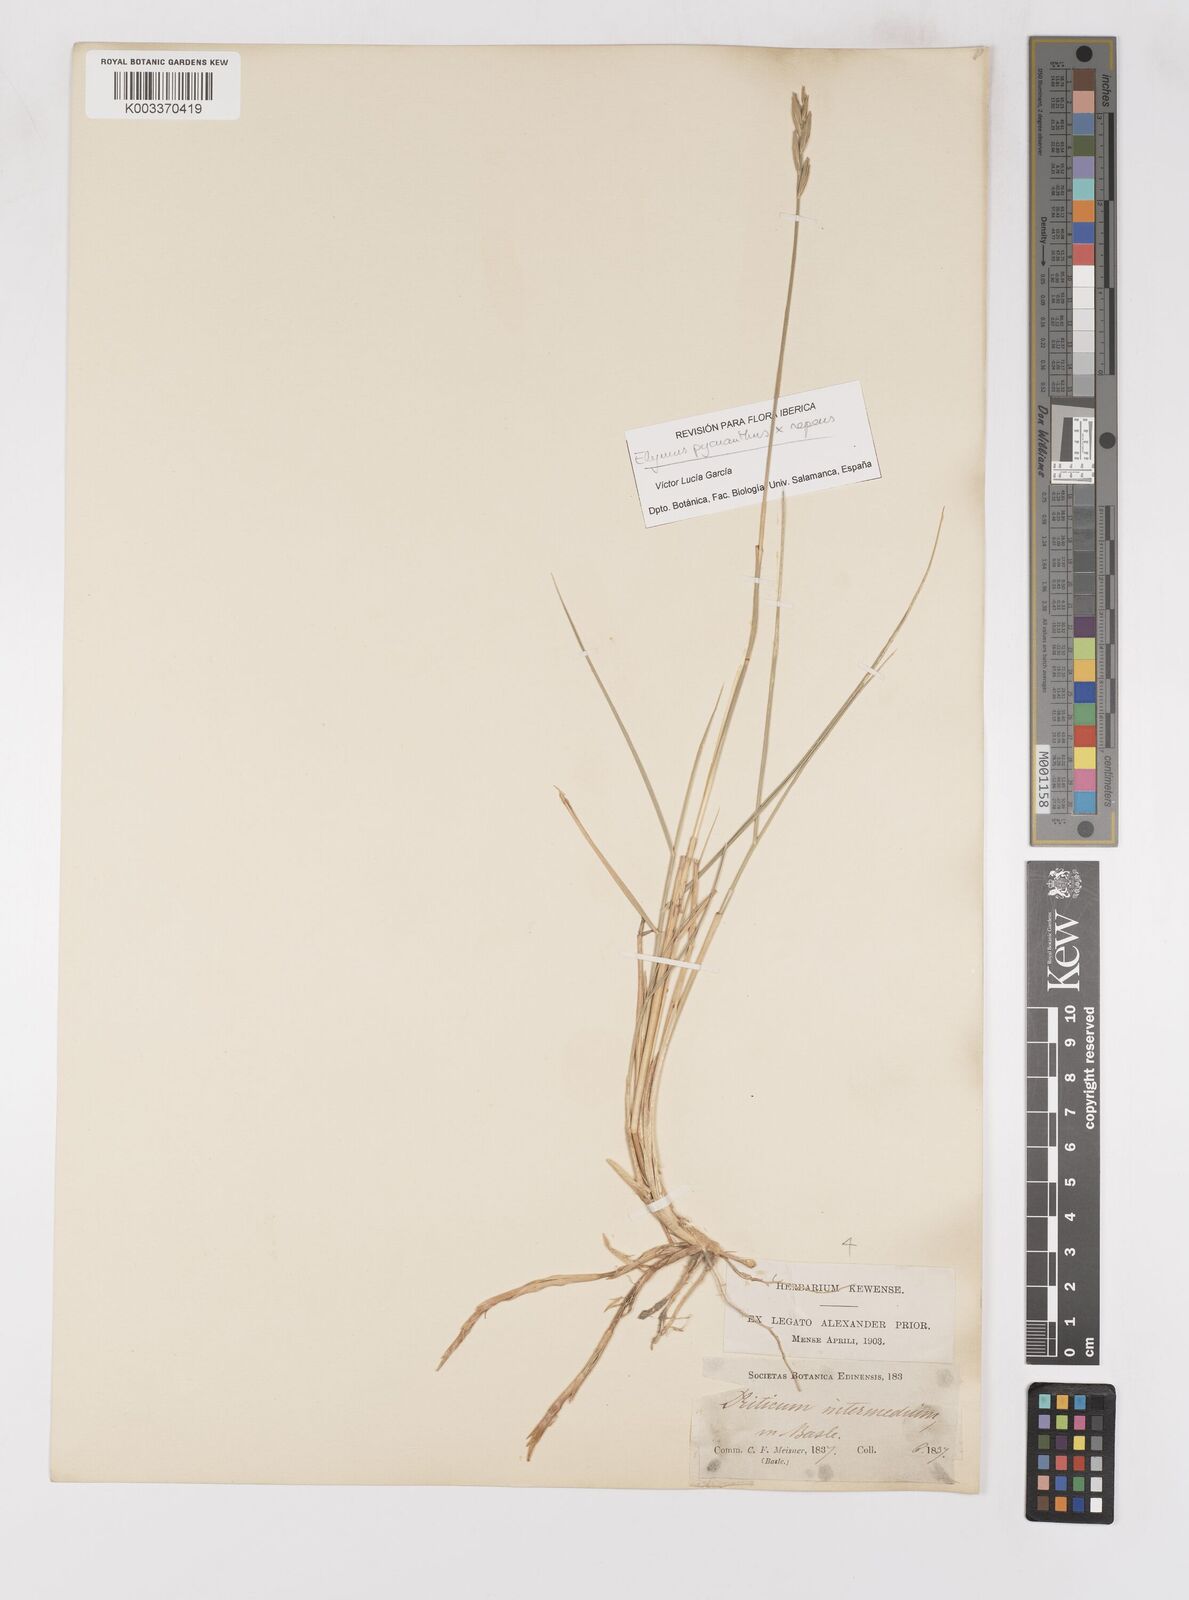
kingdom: Plantae
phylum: Tracheophyta
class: Liliopsida
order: Poales
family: Poaceae
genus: Elymus
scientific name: Elymus oliveri
